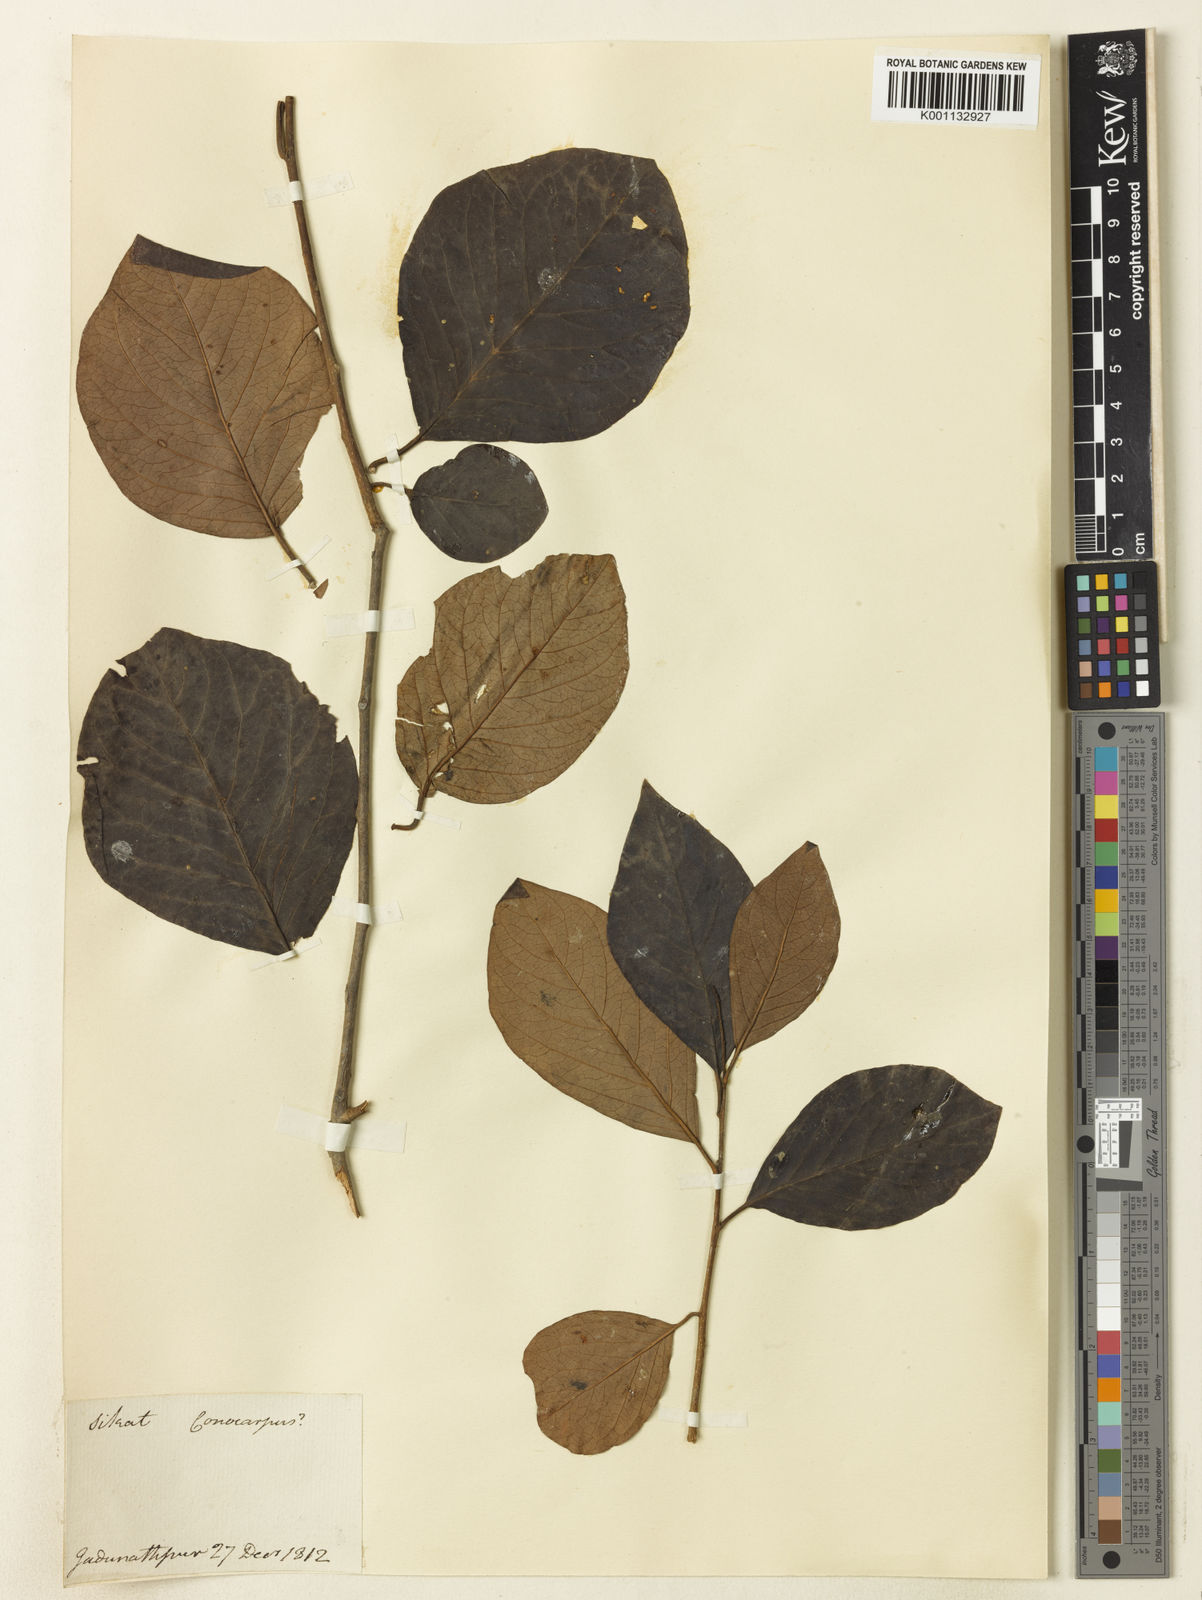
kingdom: Plantae
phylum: Tracheophyta
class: Magnoliopsida
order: Myrtales
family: Combretaceae
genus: Conocarpus
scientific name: Conocarpus
